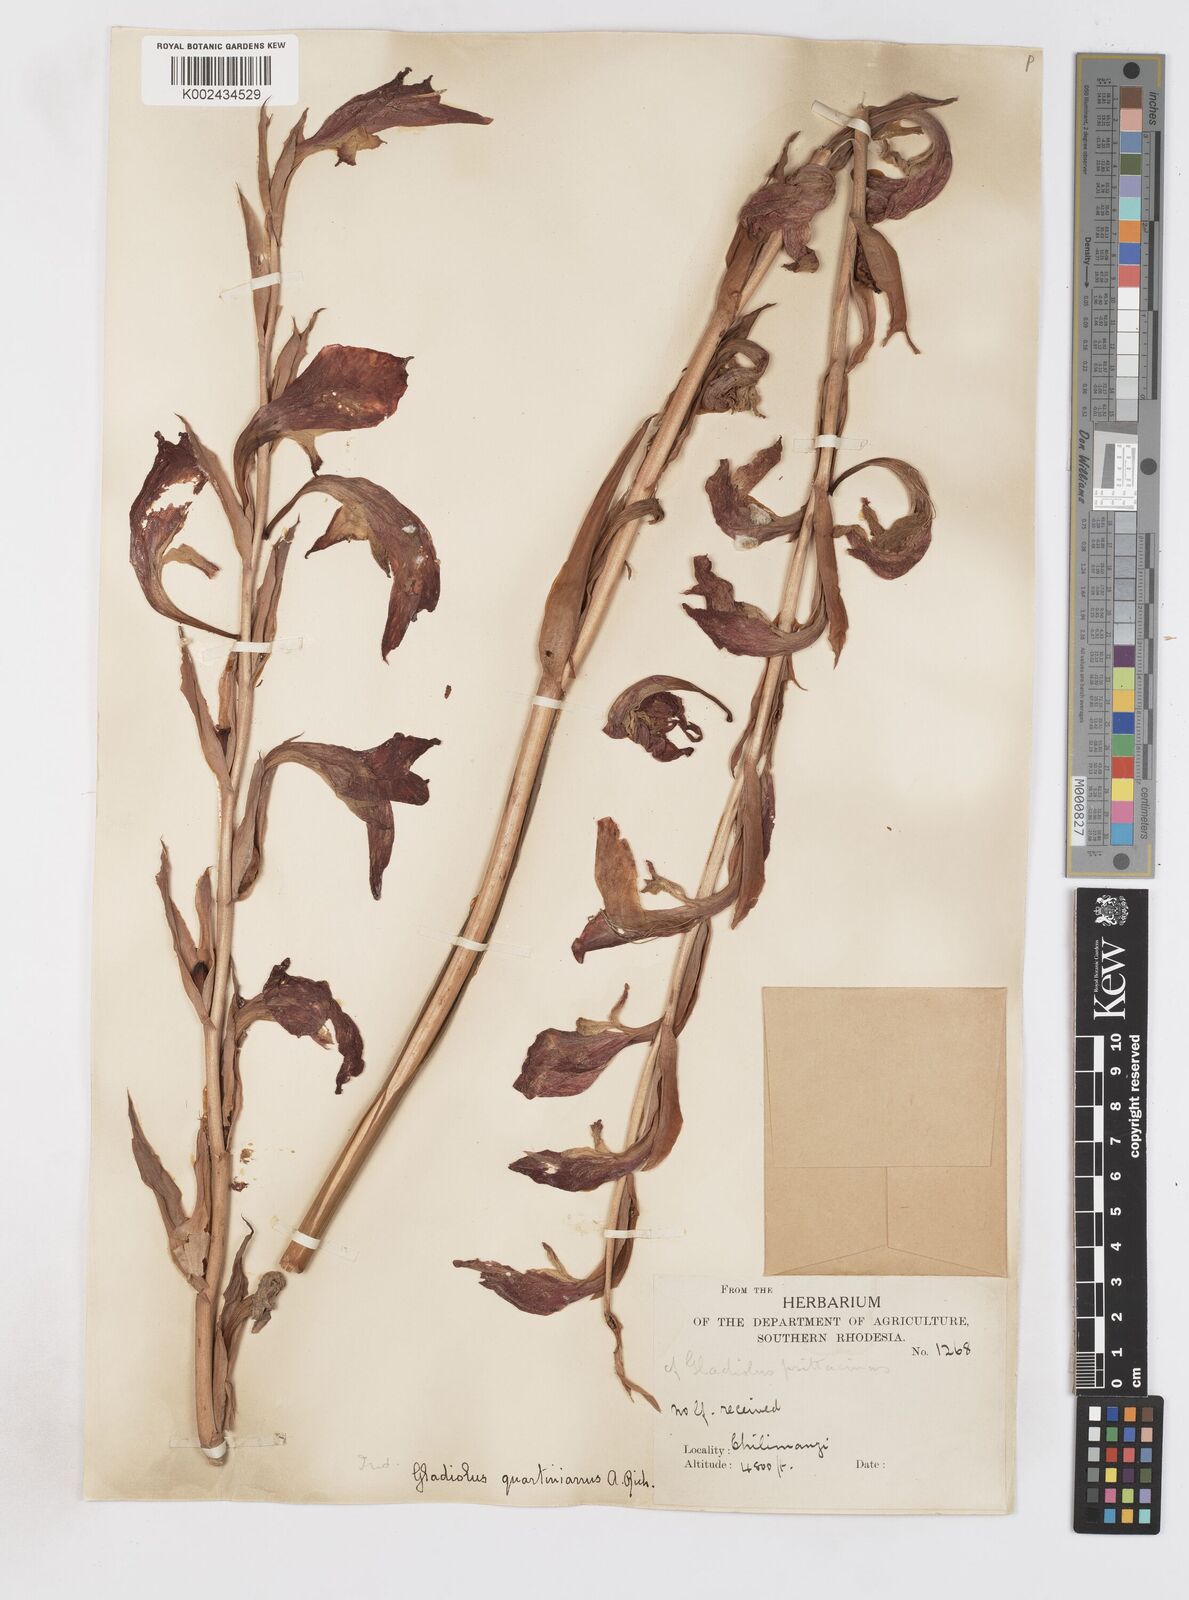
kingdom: Plantae
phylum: Tracheophyta
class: Liliopsida
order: Asparagales
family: Iridaceae
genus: Gladiolus
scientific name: Gladiolus dalenii
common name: Cornflag
